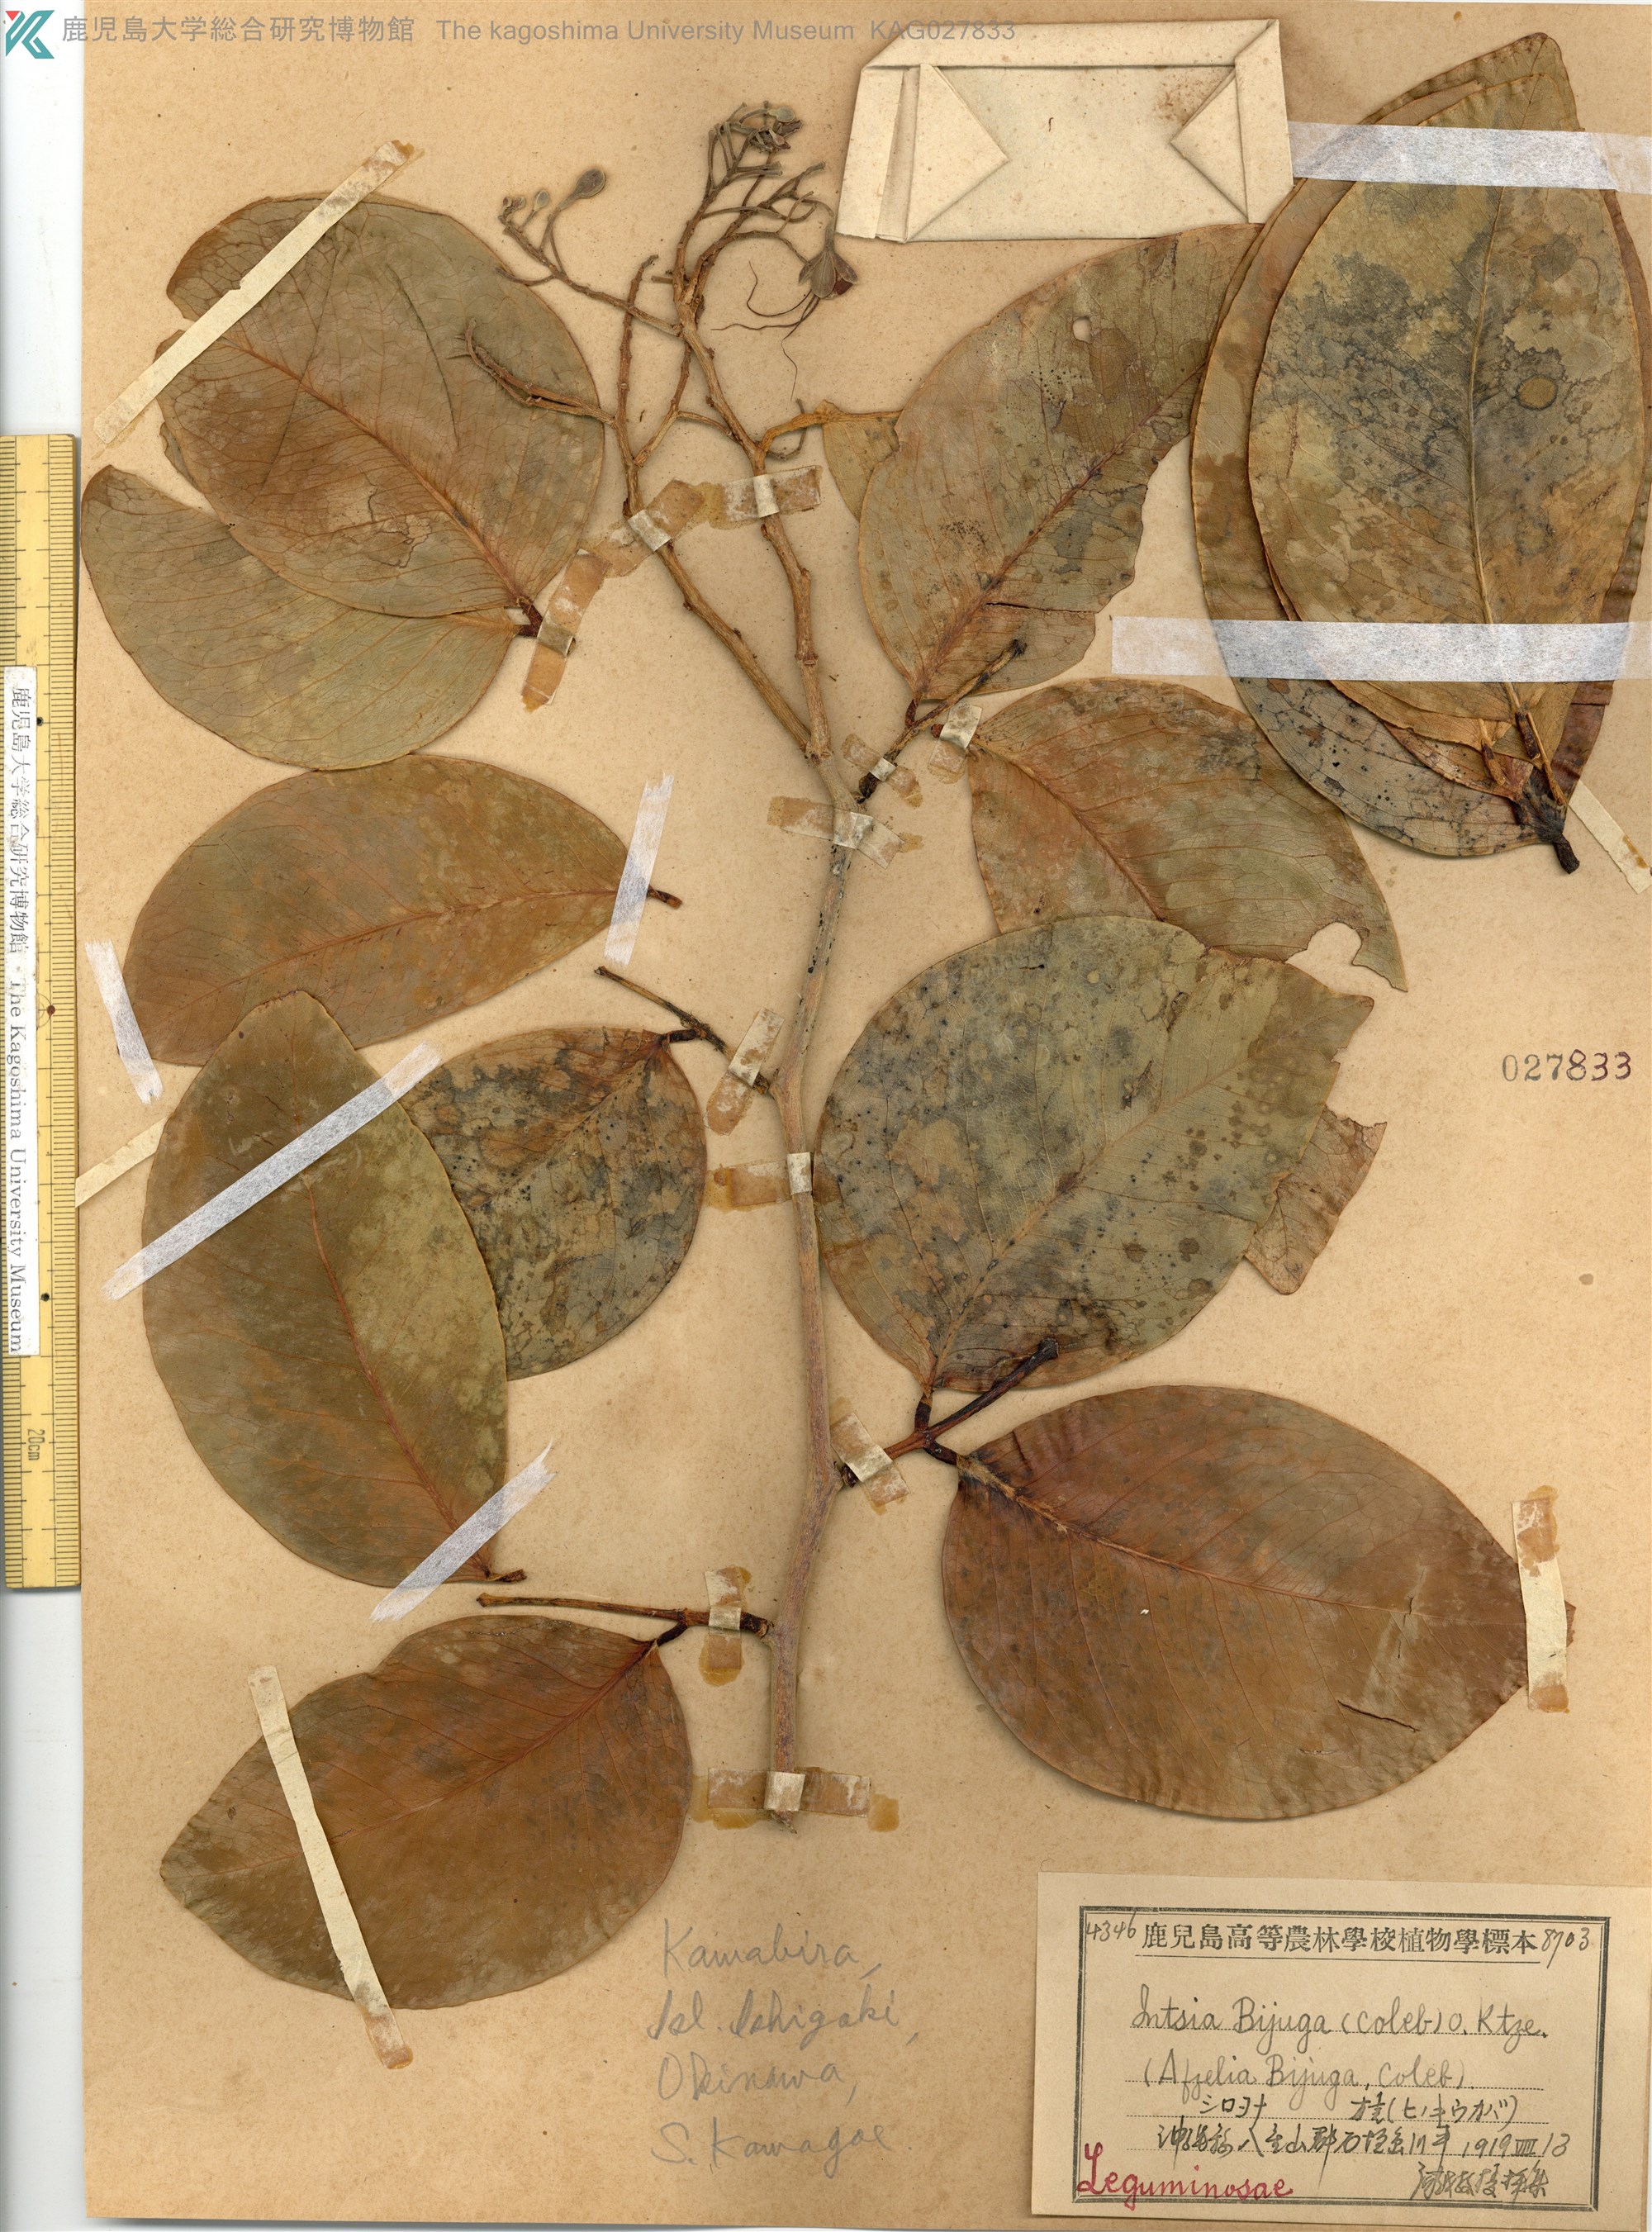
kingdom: Plantae
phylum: Tracheophyta
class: Magnoliopsida
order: Fabales
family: Fabaceae
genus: Intsia
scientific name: Intsia bijuga
